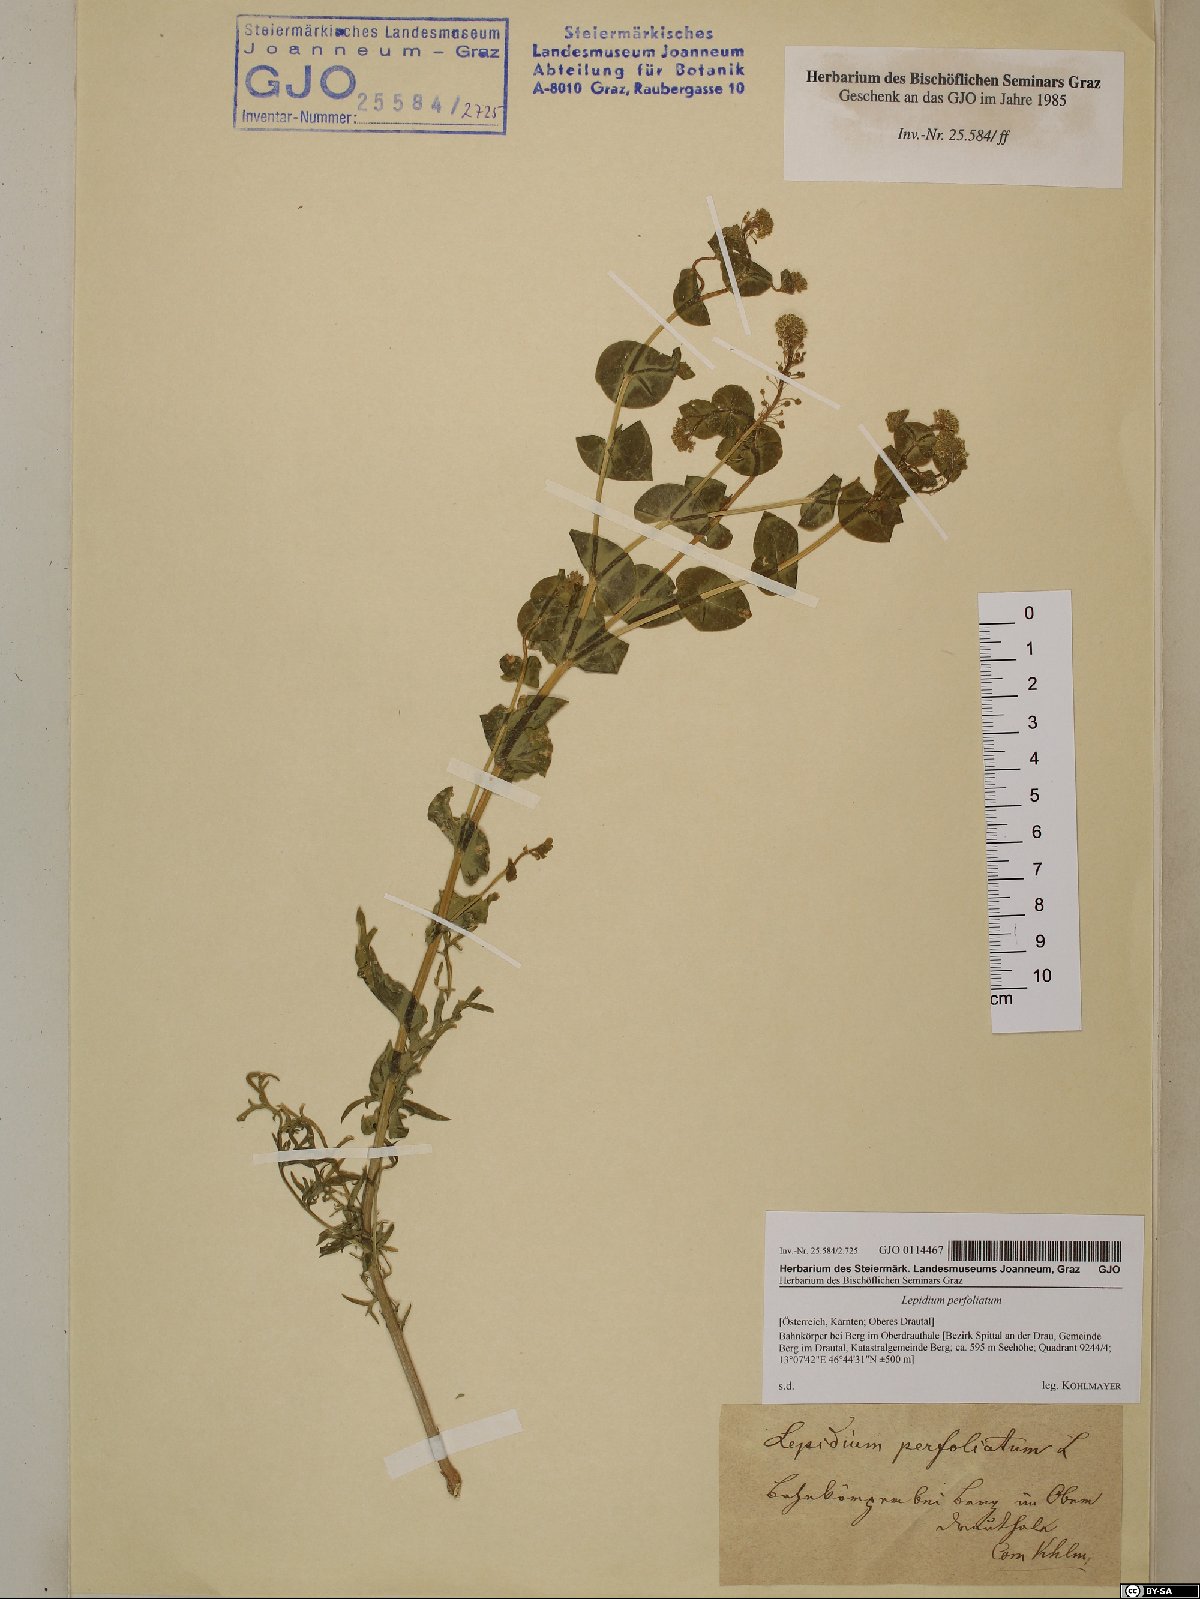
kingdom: Plantae
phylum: Tracheophyta
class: Magnoliopsida
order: Brassicales
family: Brassicaceae
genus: Lepidium
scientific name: Lepidium perfoliatum
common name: Perfoliate pepperwort
